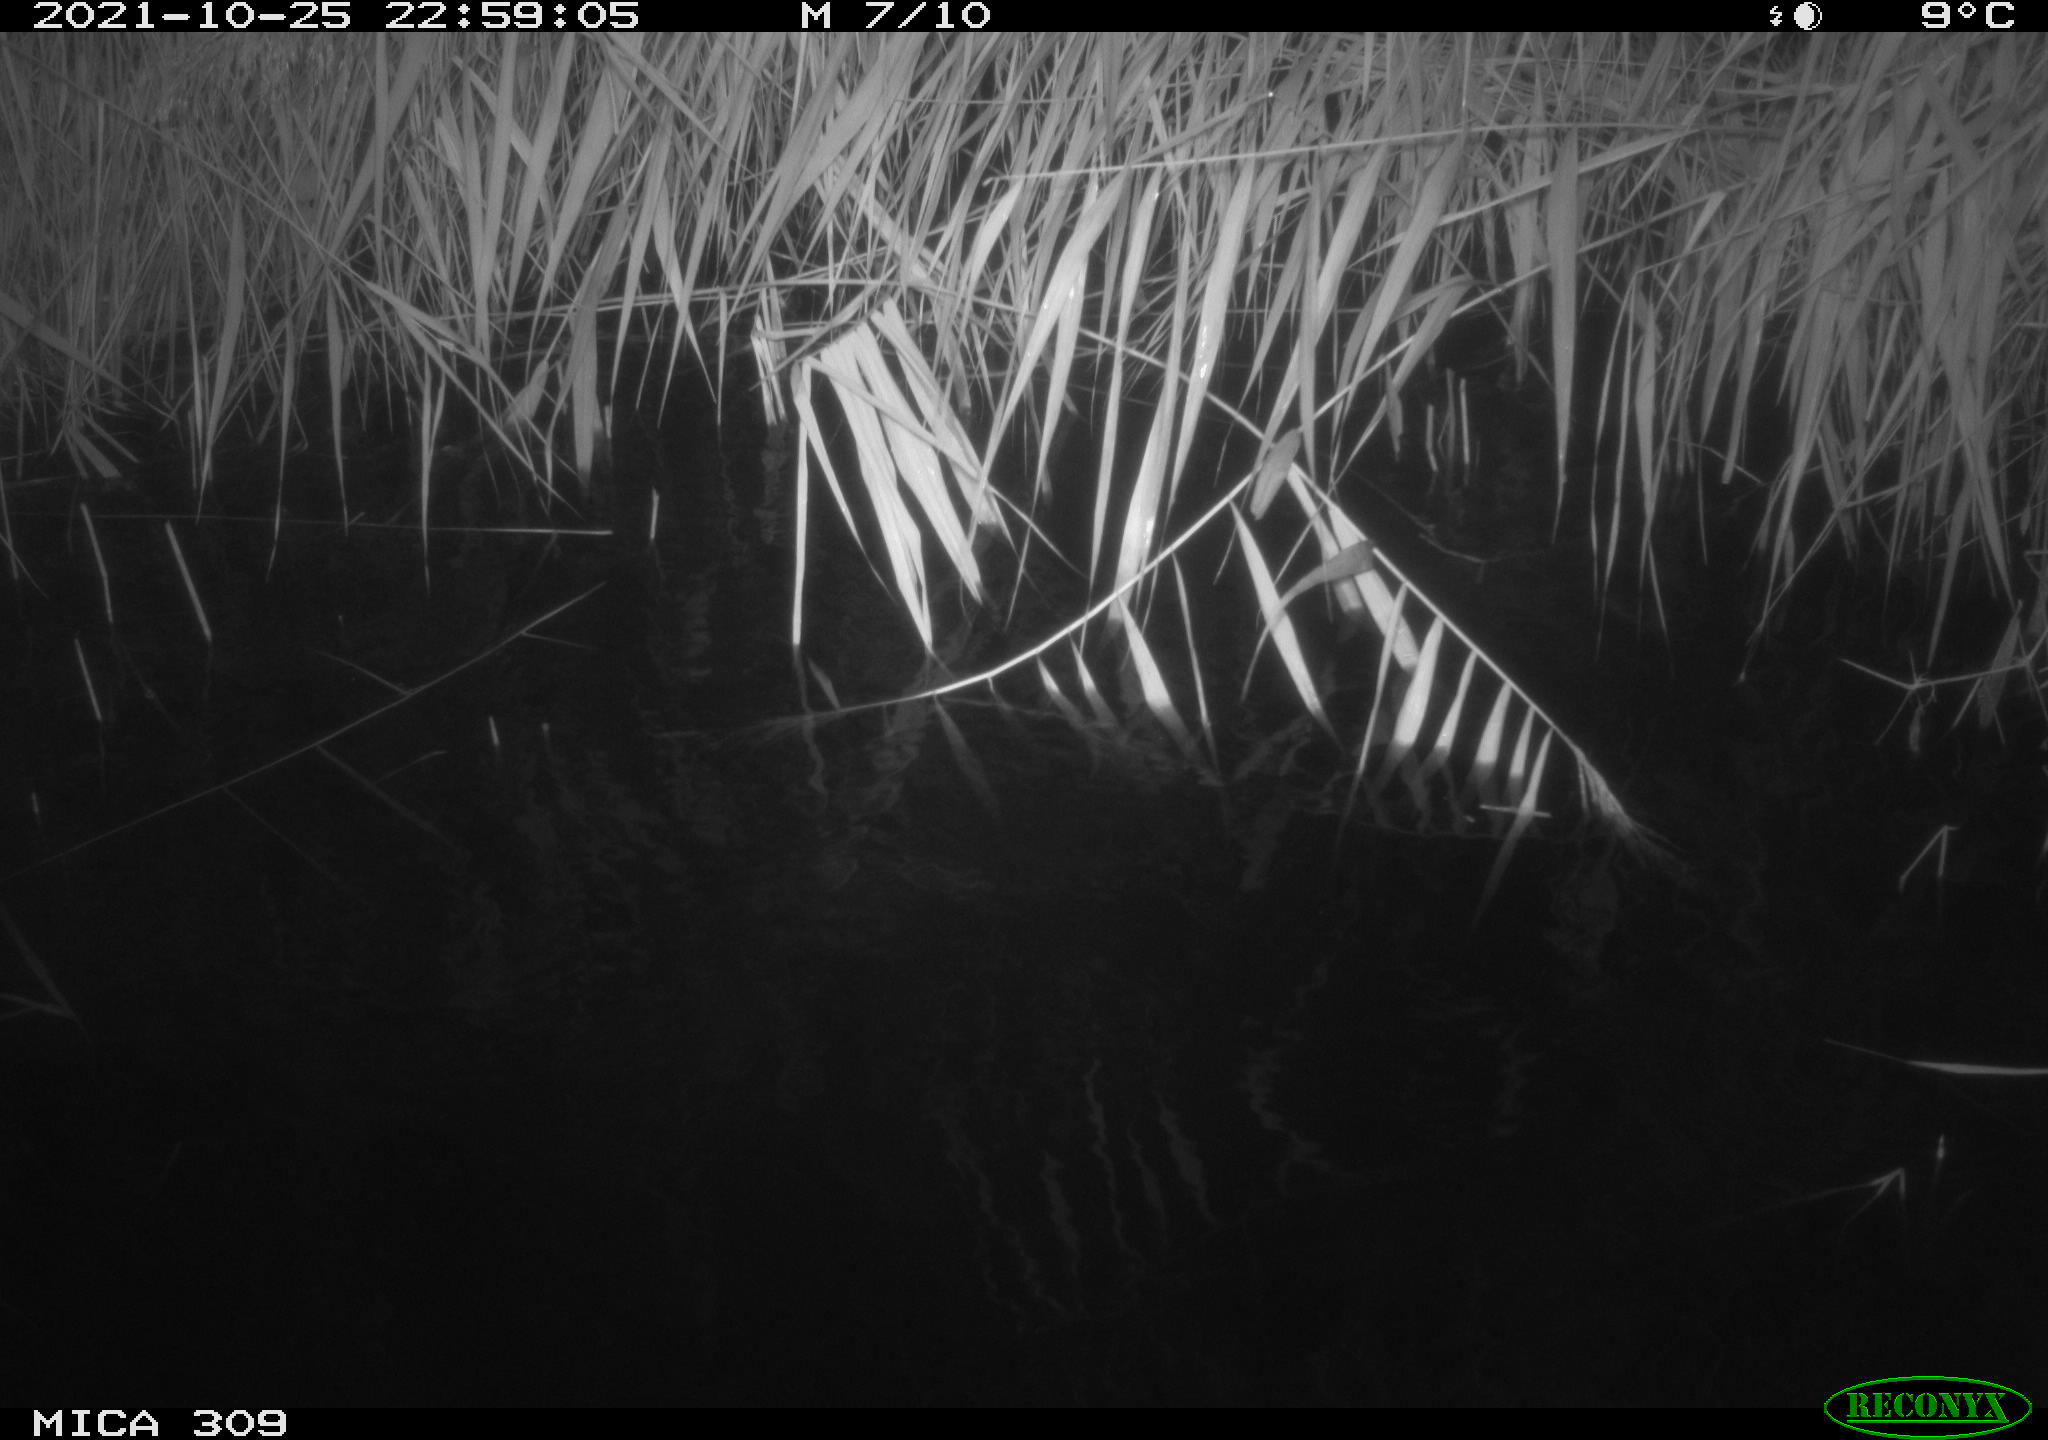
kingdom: Animalia
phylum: Chordata
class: Mammalia
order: Rodentia
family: Cricetidae
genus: Ondatra
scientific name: Ondatra zibethicus
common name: Muskrat
